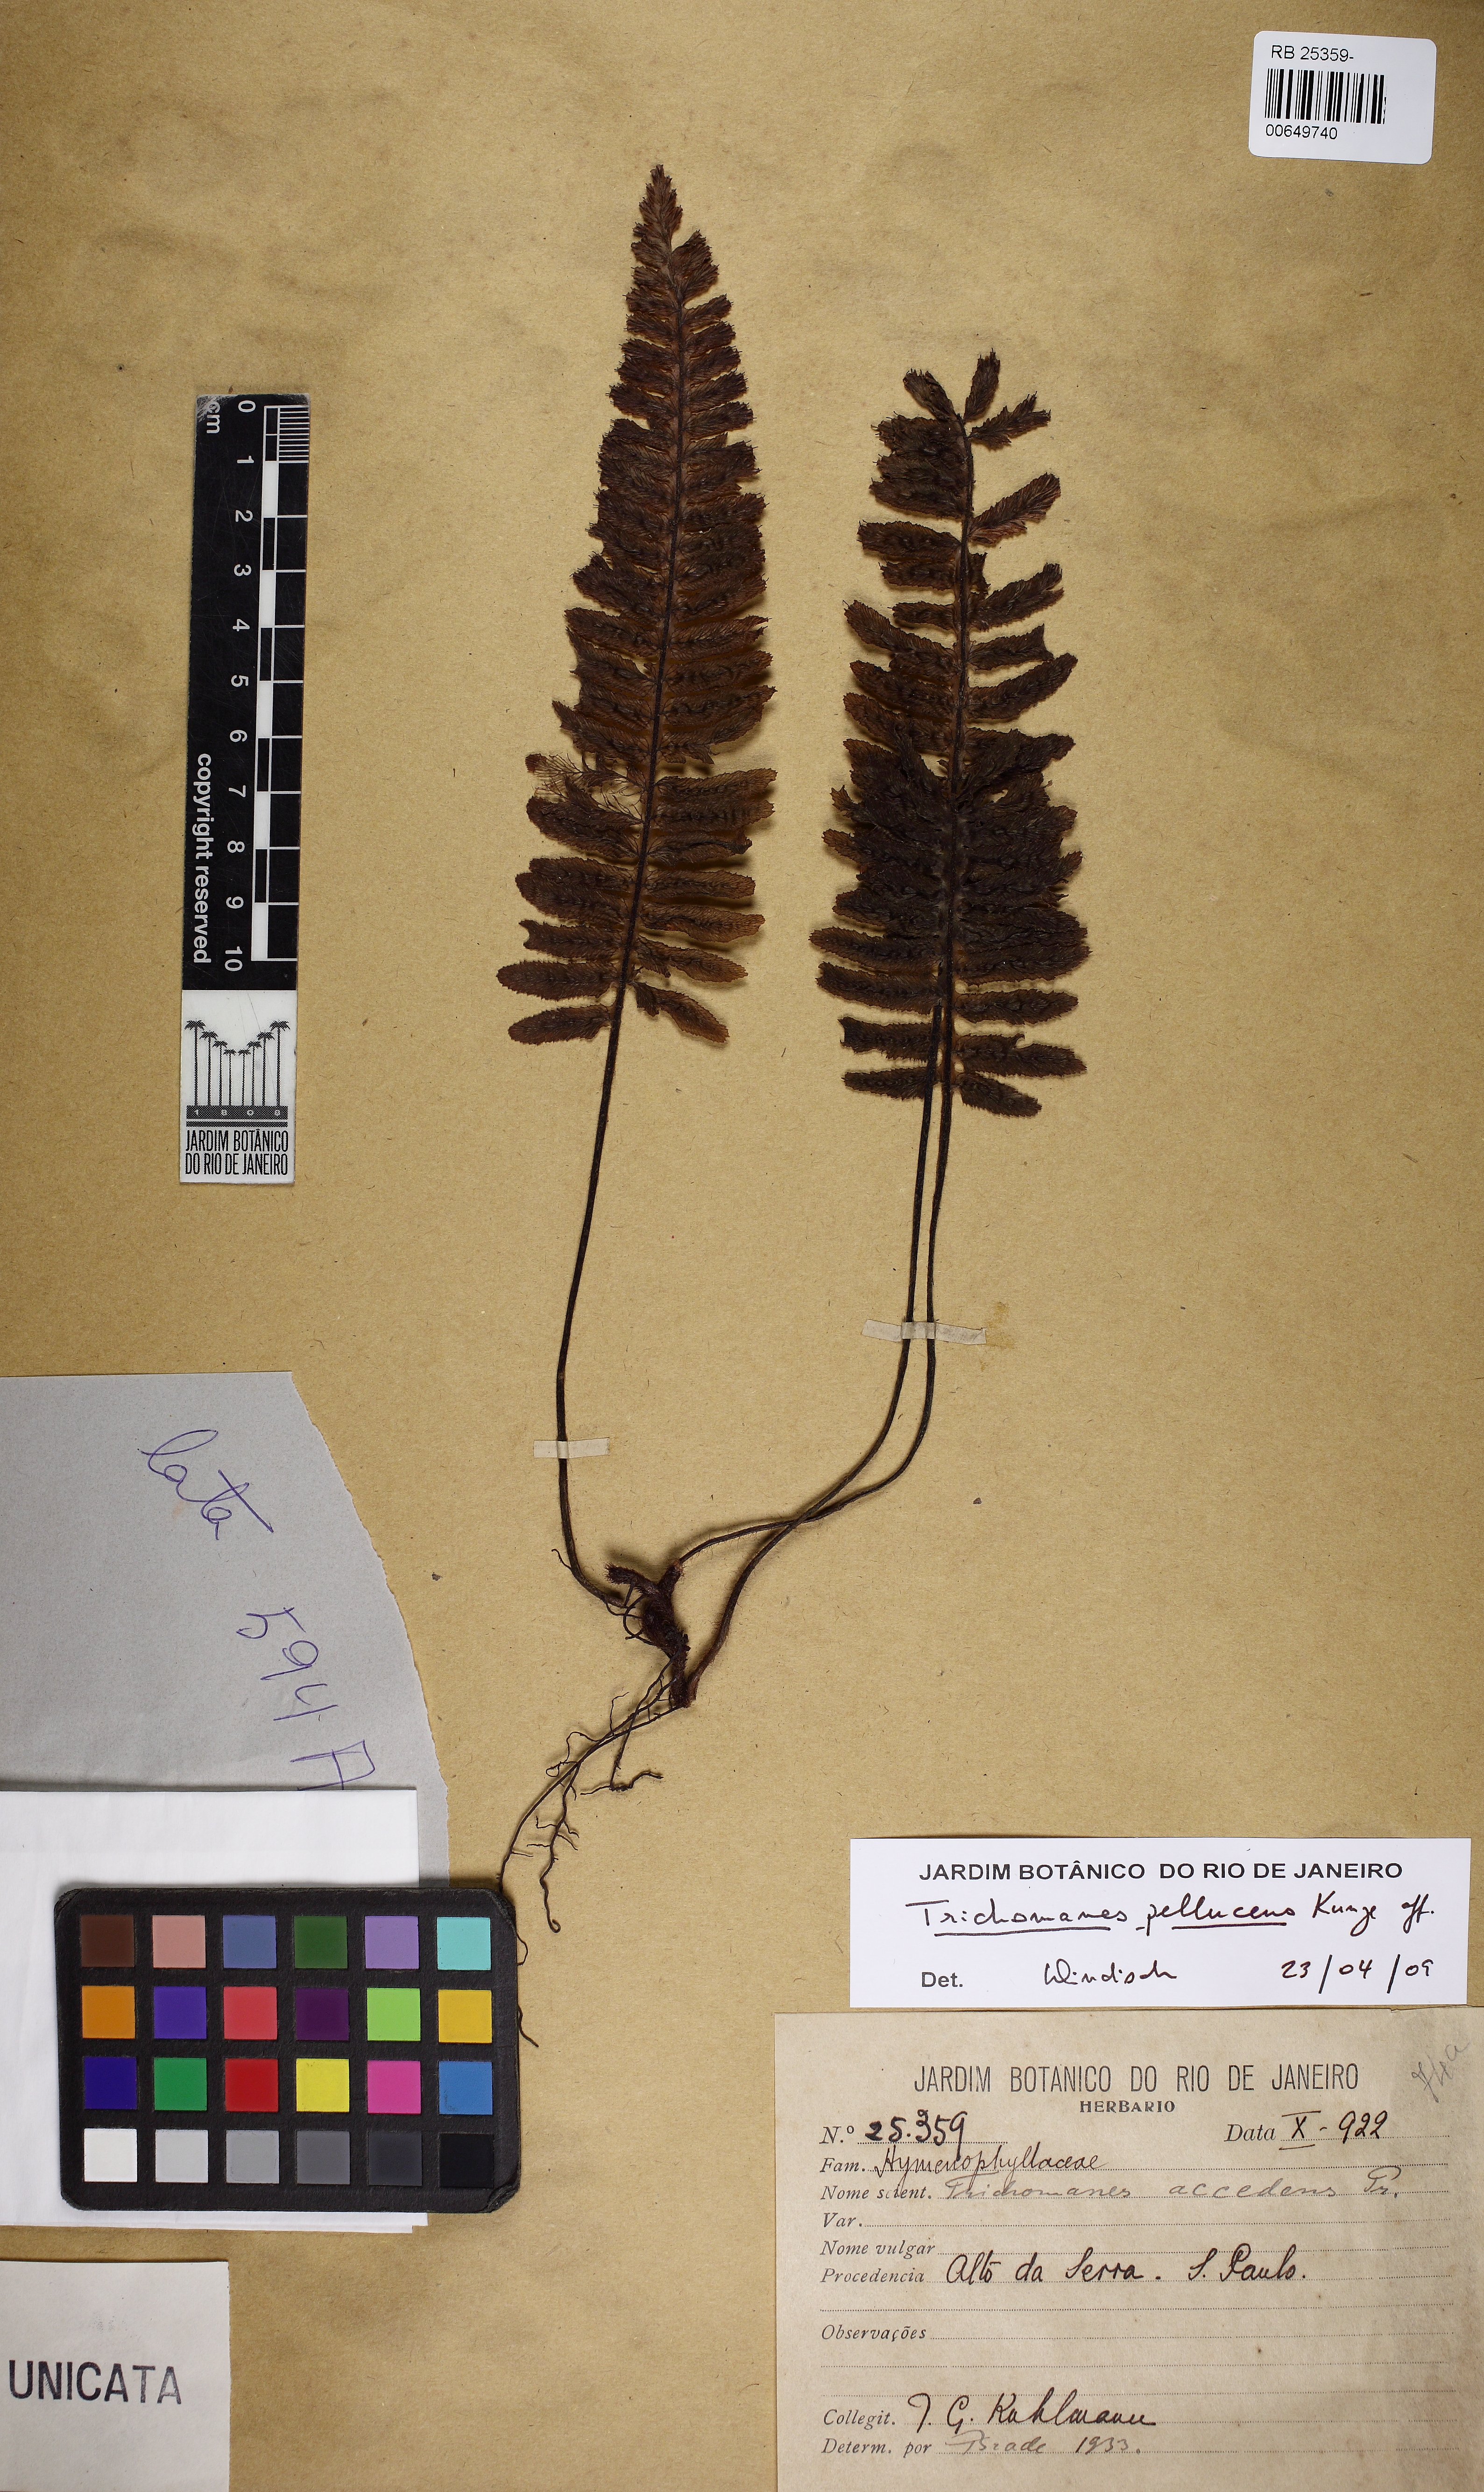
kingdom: Plantae
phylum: Tracheophyta
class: Polypodiopsida
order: Hymenophyllales
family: Hymenophyllaceae
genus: Trichomanes
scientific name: Trichomanes pellucens
